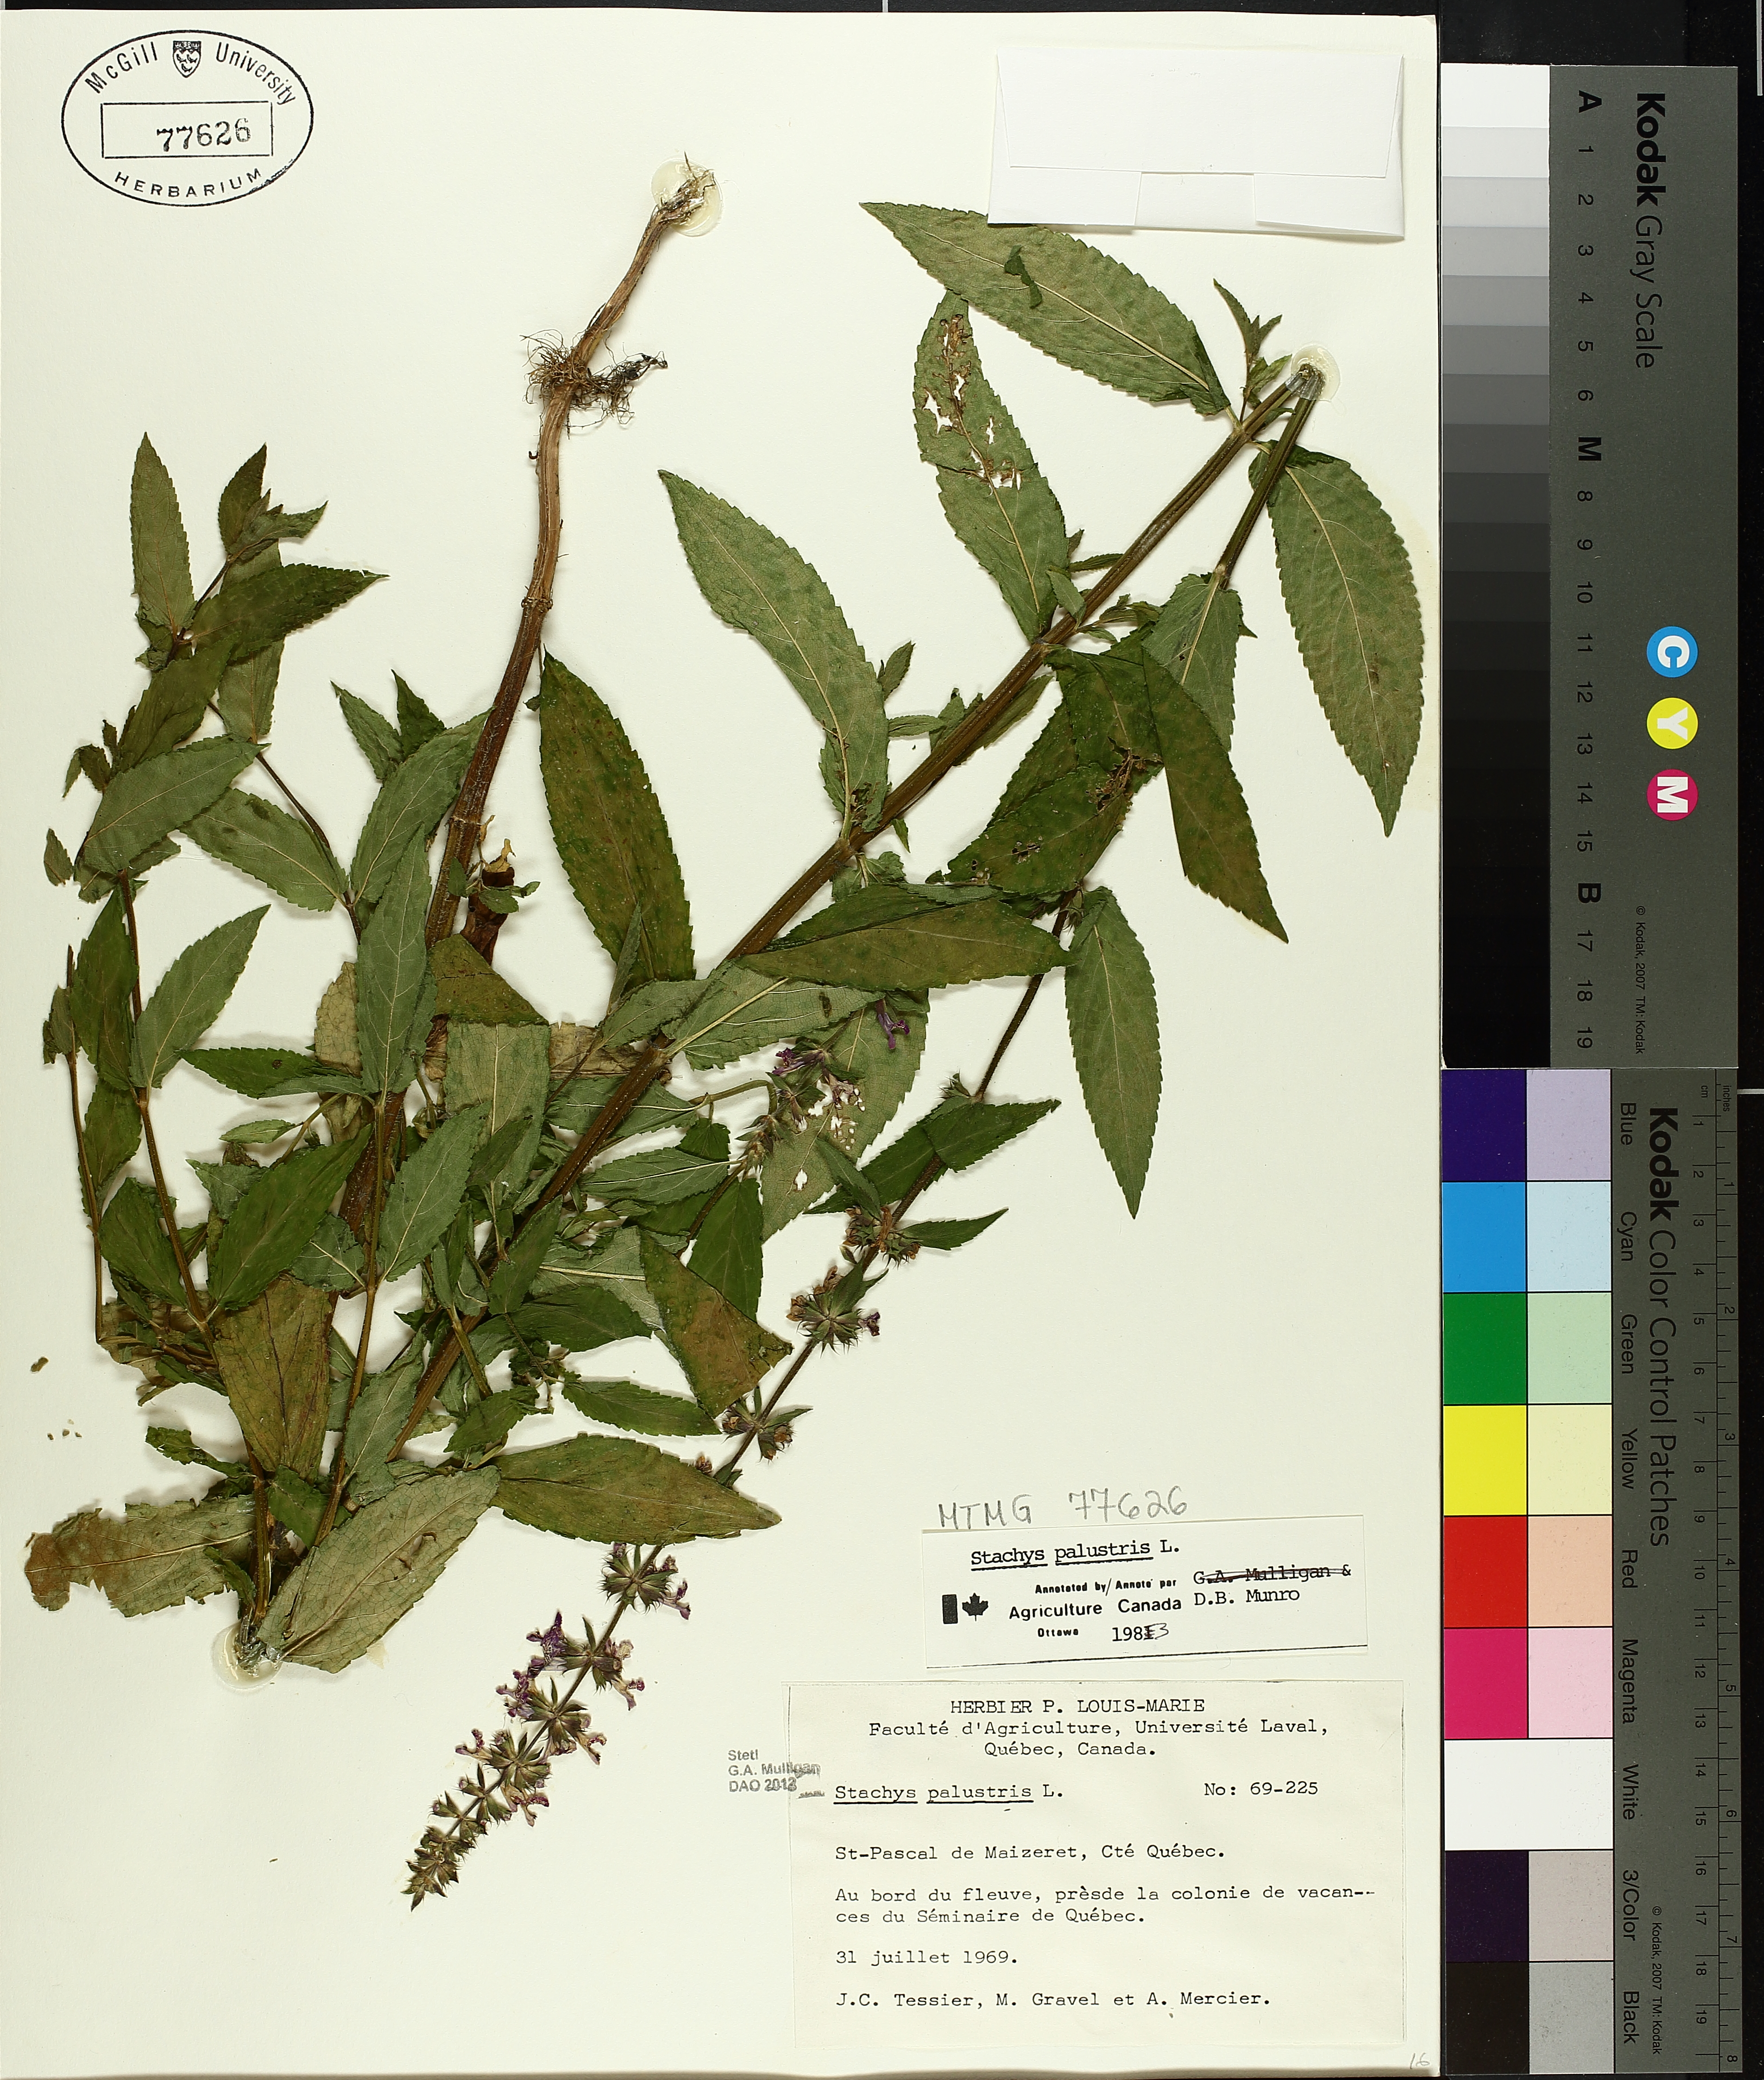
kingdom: Plantae
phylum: Tracheophyta
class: Magnoliopsida
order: Lamiales
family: Lamiaceae
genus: Stachys
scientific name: Stachys palustris
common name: Marsh woundwort
